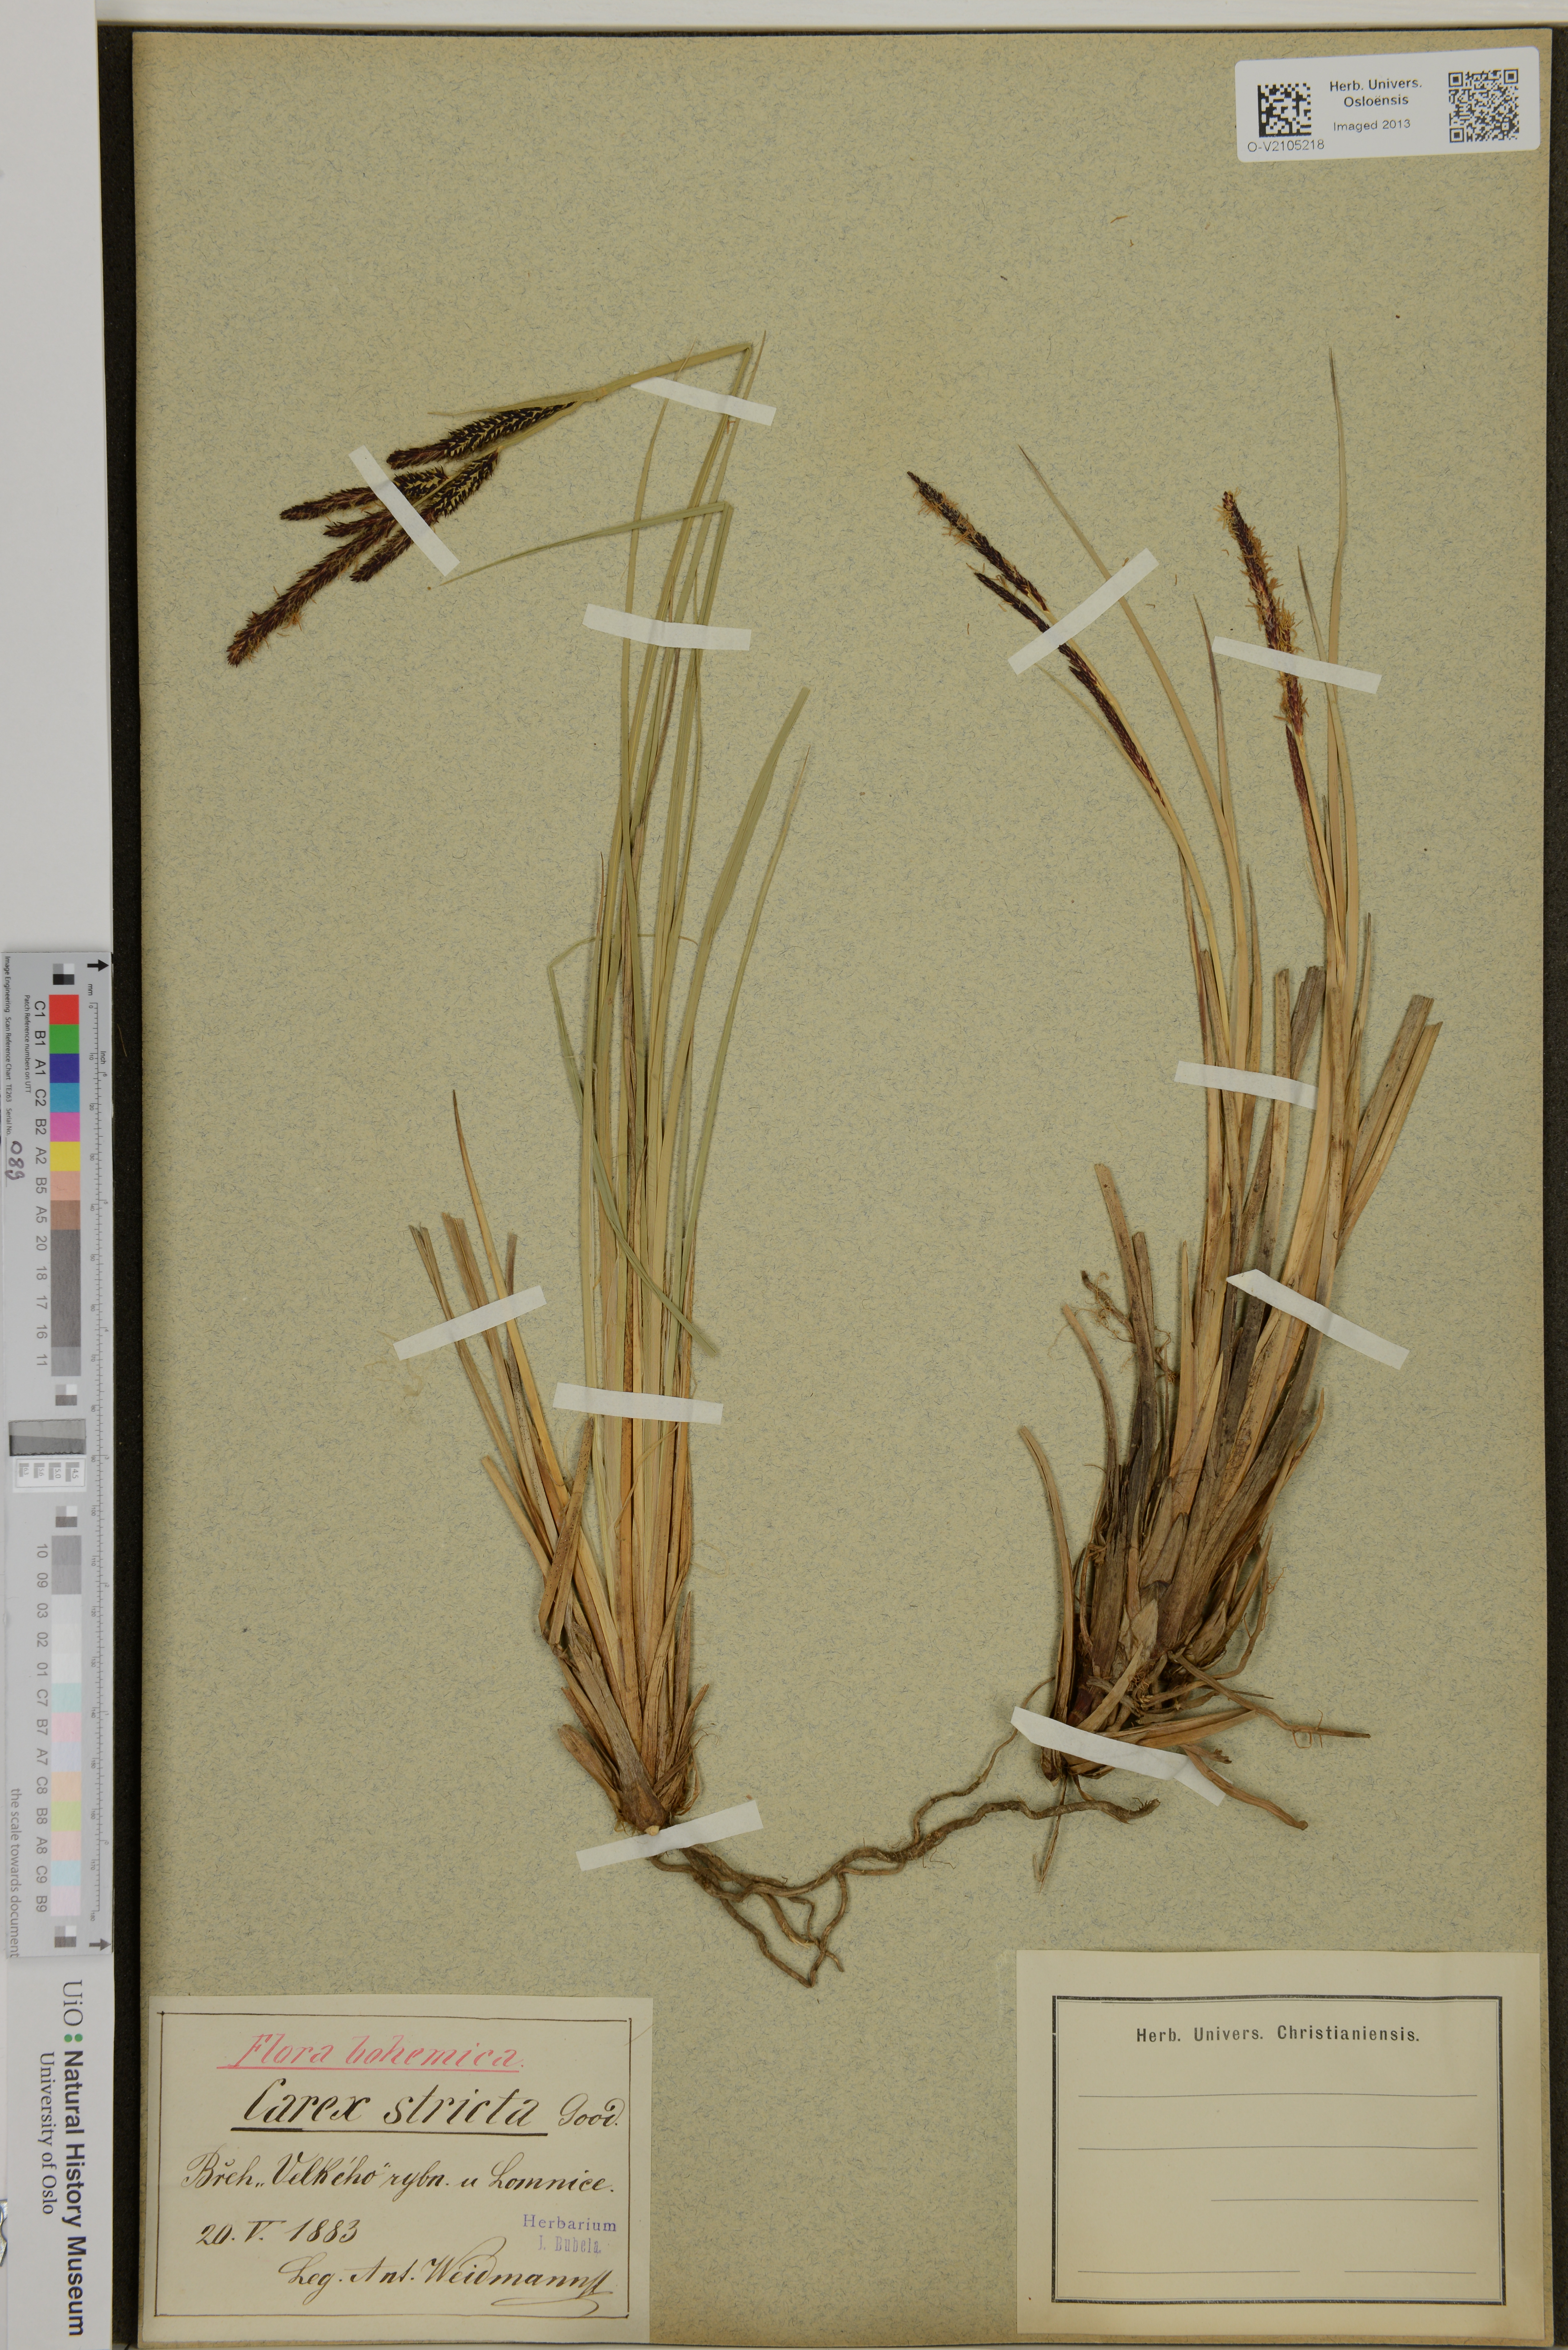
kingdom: Plantae
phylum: Tracheophyta
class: Liliopsida
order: Poales
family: Cyperaceae
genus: Carex
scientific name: Carex elata
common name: Tufted sedge
